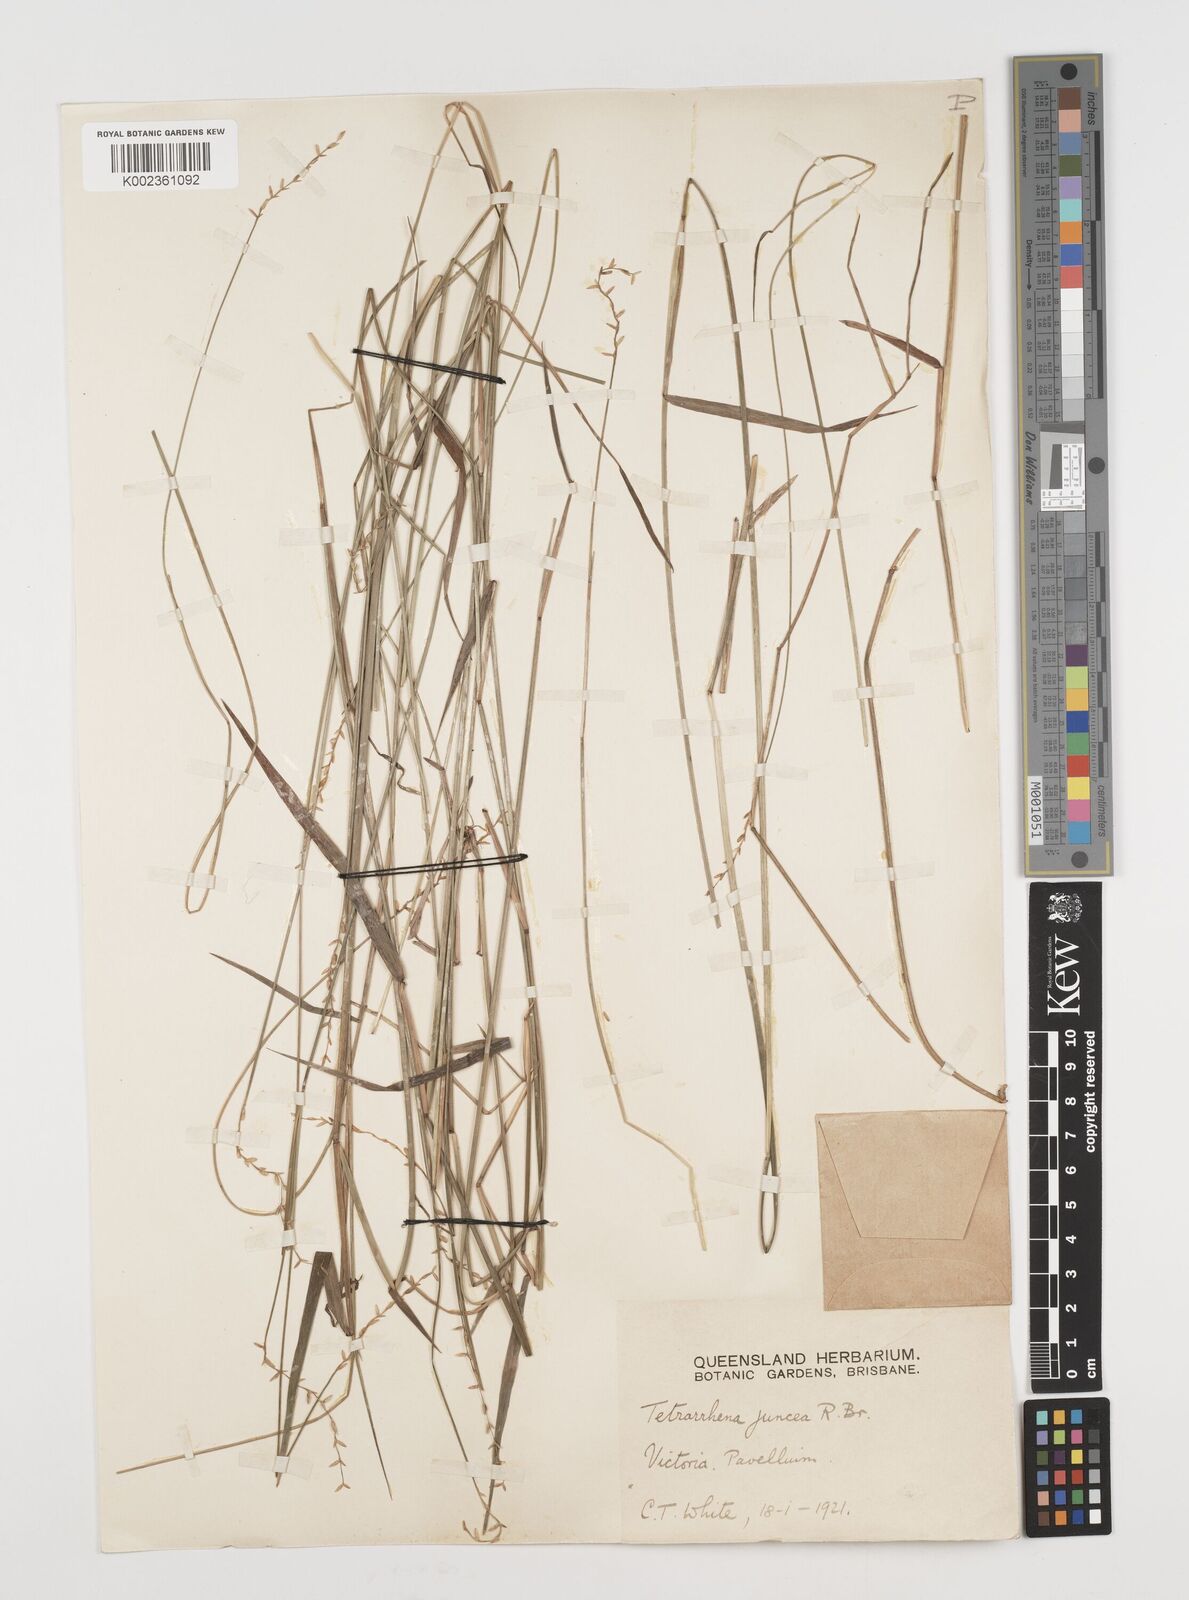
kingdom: Plantae
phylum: Tracheophyta
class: Liliopsida
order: Poales
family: Poaceae
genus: Tetrarrhena
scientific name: Tetrarrhena juncea
